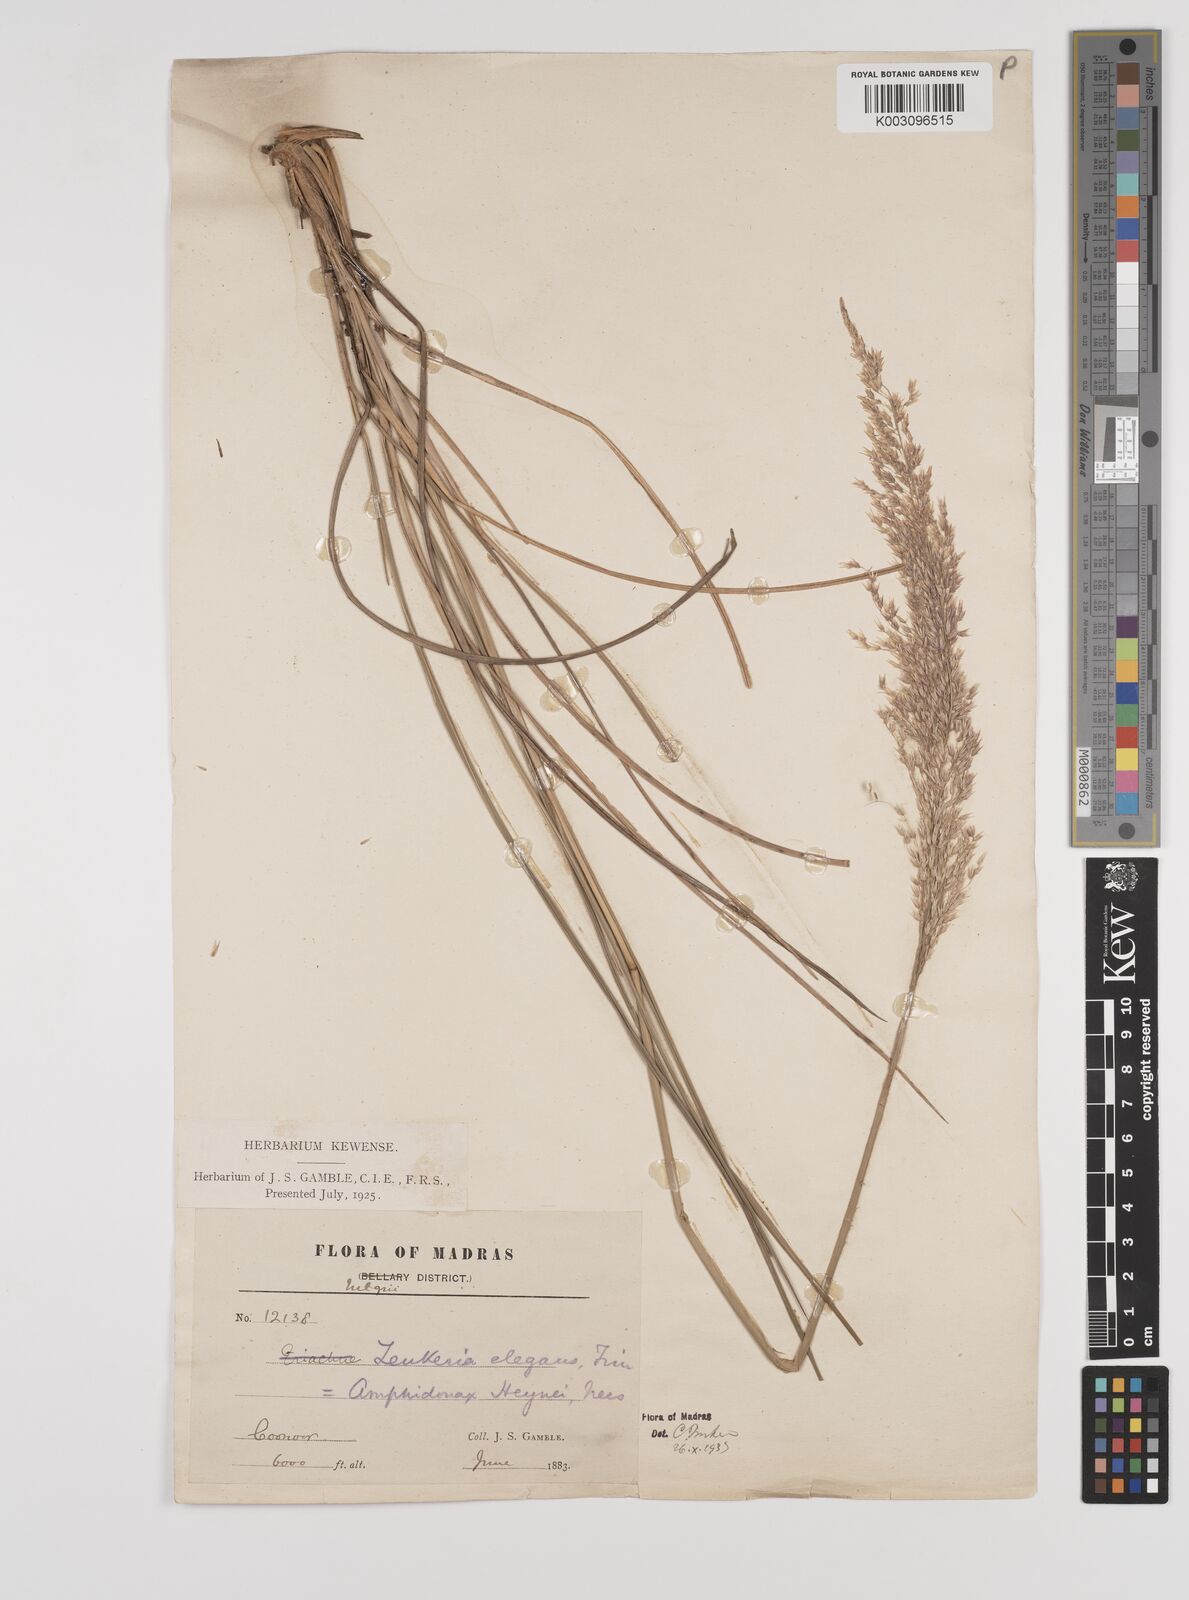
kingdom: Plantae
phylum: Tracheophyta
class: Liliopsida
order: Poales
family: Poaceae
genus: Zenkeria
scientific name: Zenkeria elegans
